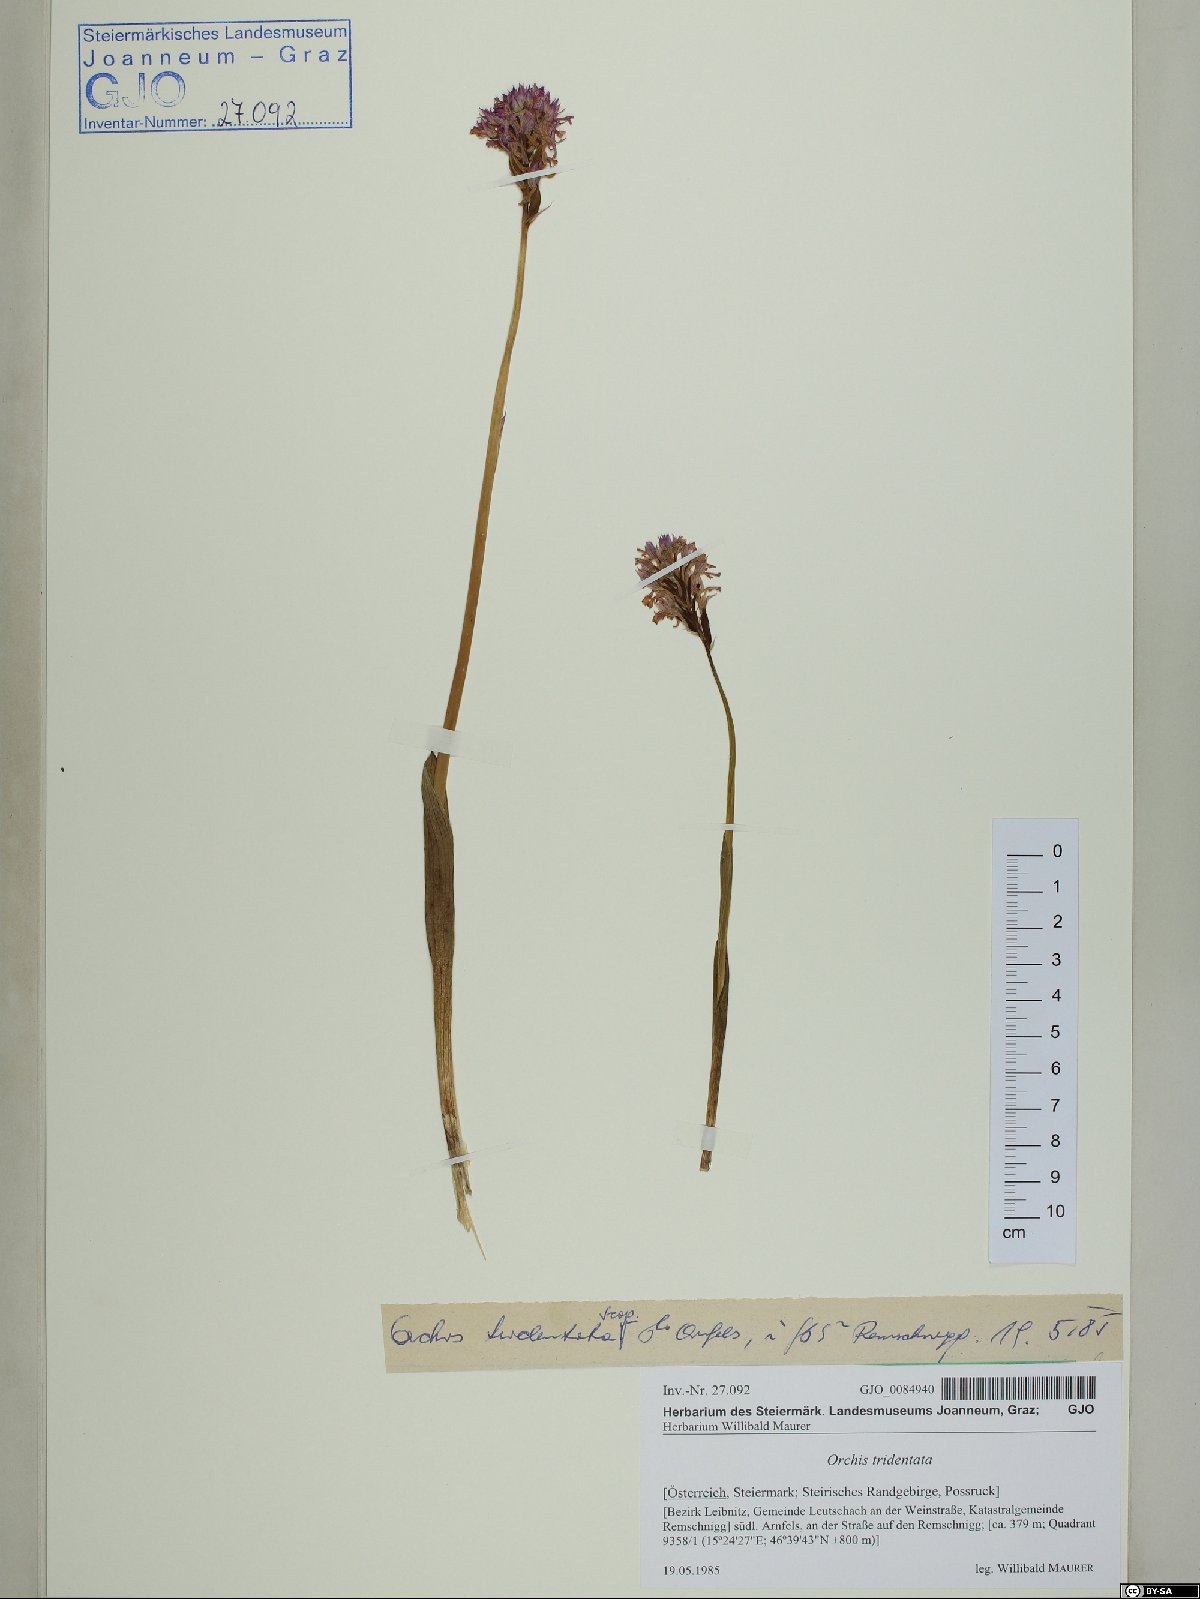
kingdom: Plantae
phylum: Tracheophyta
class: Liliopsida
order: Asparagales
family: Orchidaceae
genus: Neotinea
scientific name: Neotinea tridentata
